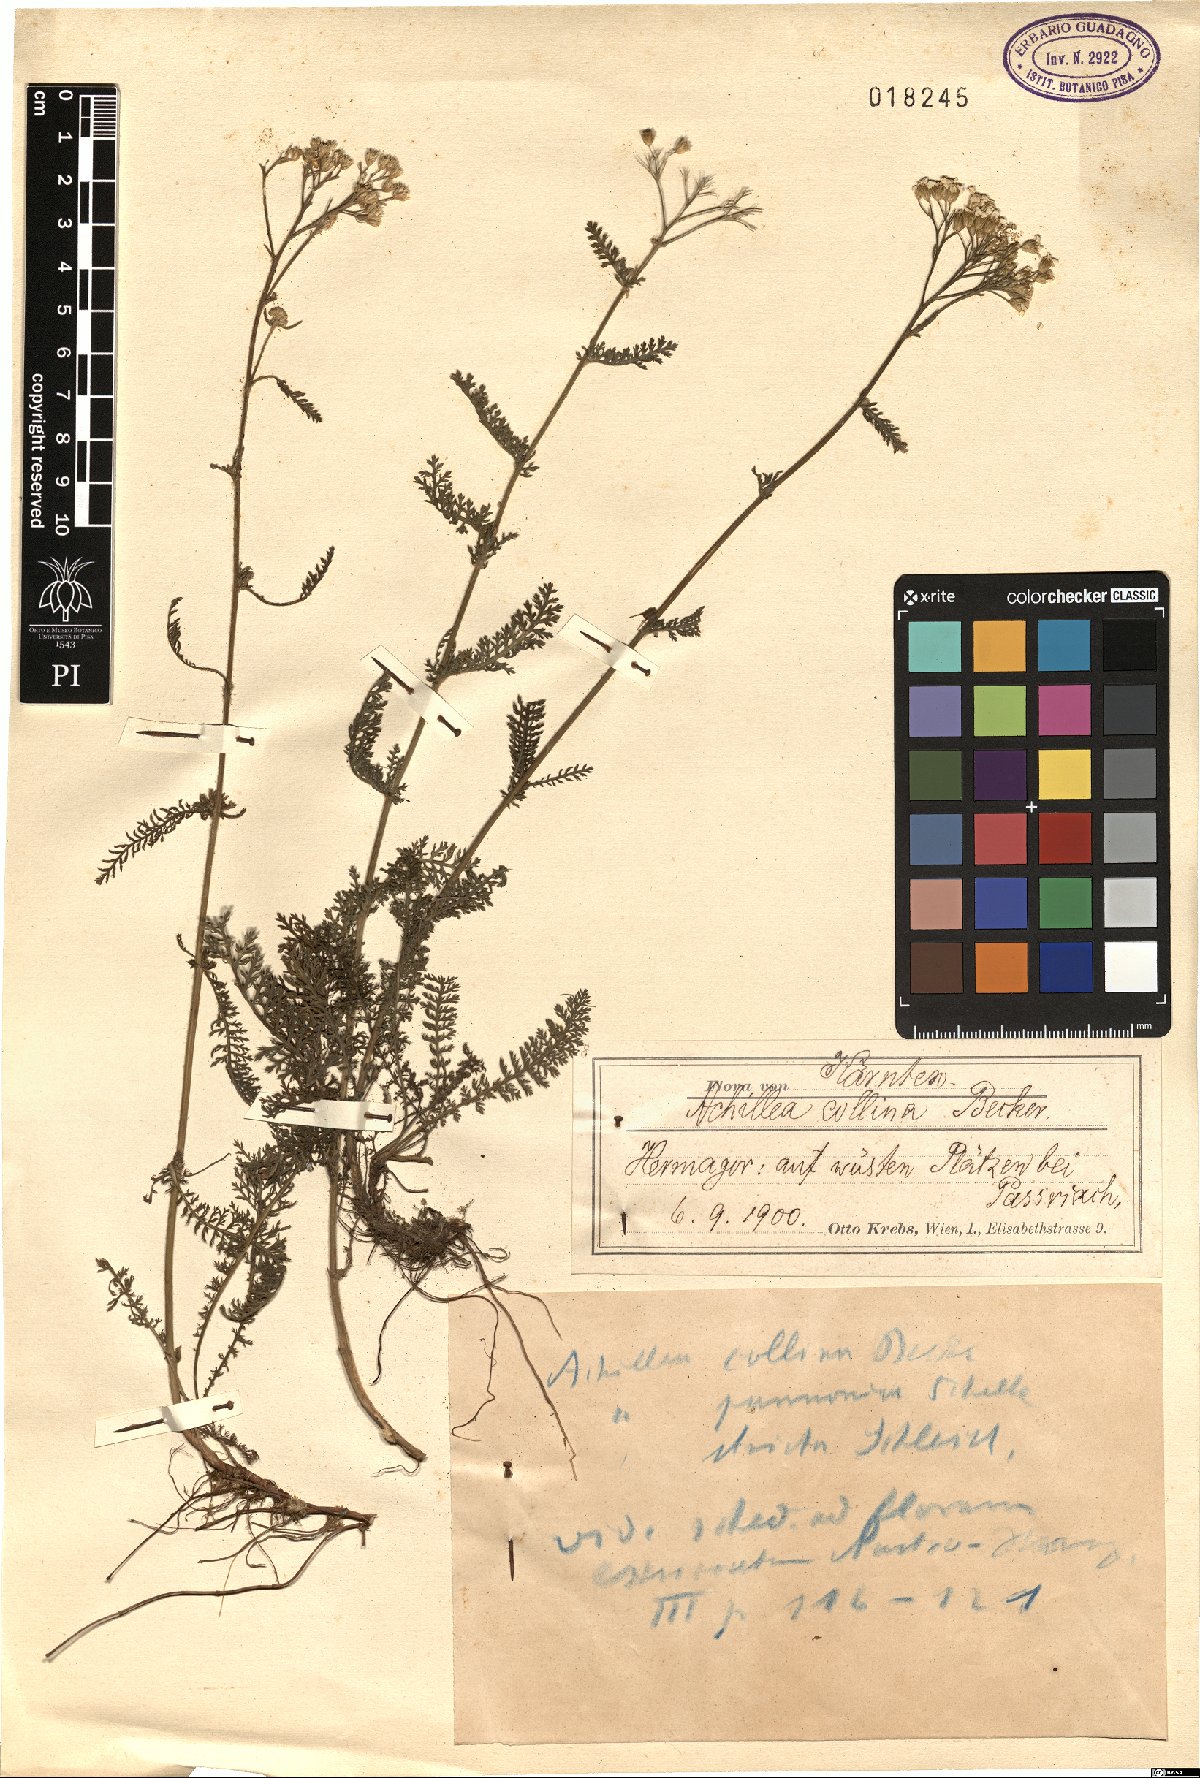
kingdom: Plantae
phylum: Tracheophyta
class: Magnoliopsida
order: Asterales
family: Asteraceae
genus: Achillea
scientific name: Achillea collina
